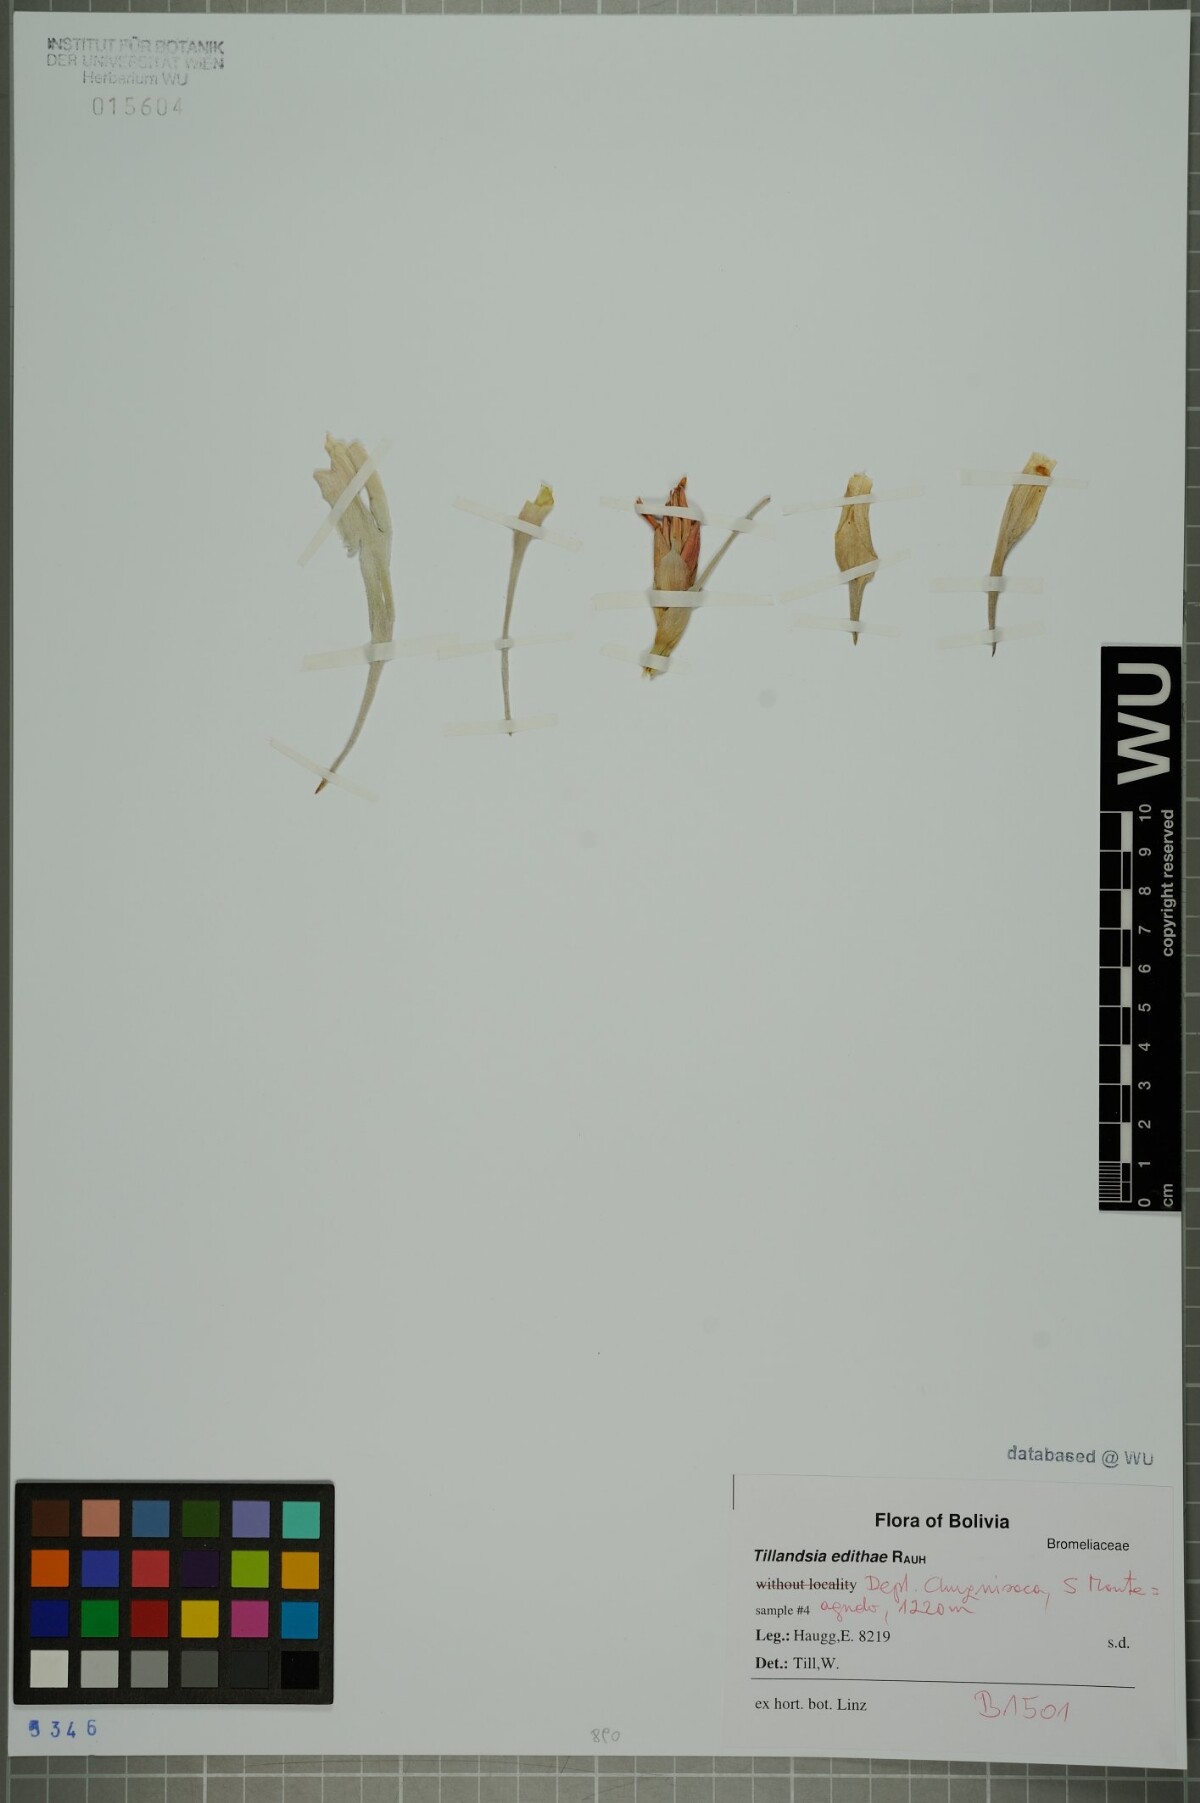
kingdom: Plantae
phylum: Tracheophyta
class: Liliopsida
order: Poales
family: Bromeliaceae
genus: Tillandsia
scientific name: Tillandsia edithae
